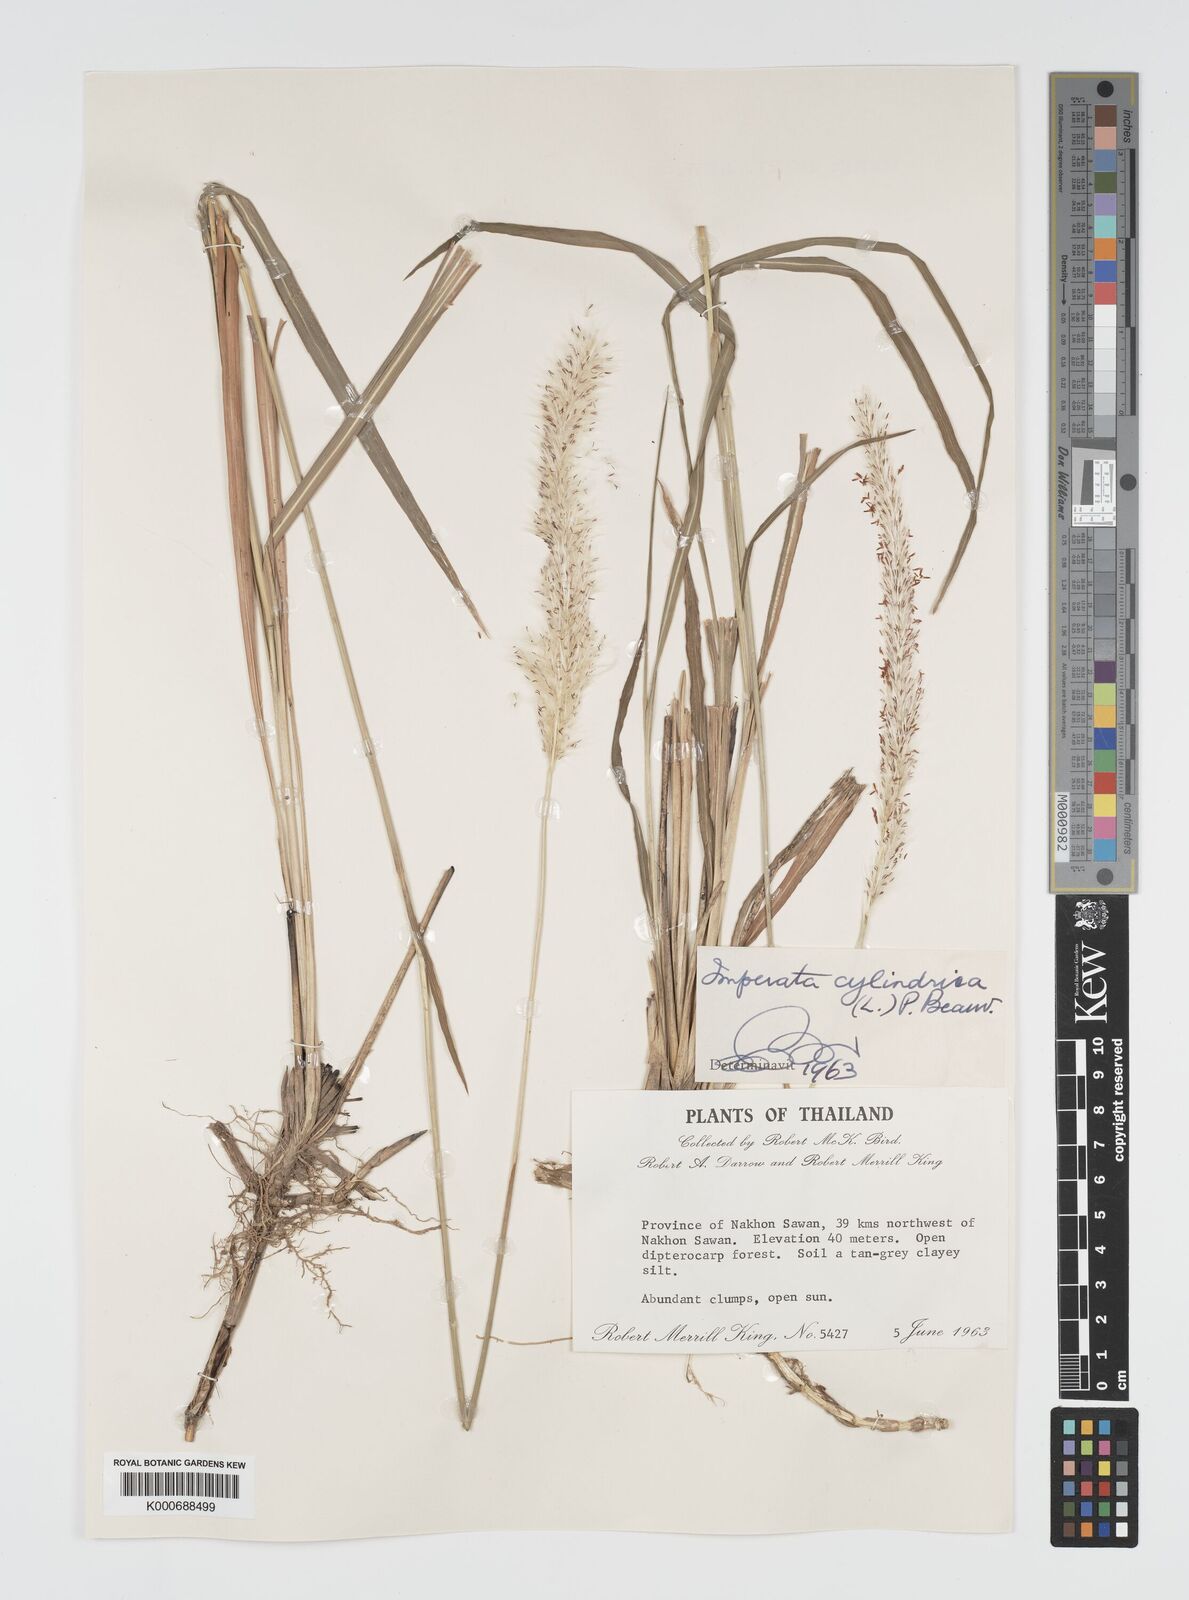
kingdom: Plantae
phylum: Tracheophyta
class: Liliopsida
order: Poales
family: Poaceae
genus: Imperata
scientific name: Imperata cylindrica
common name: Cogongrass
